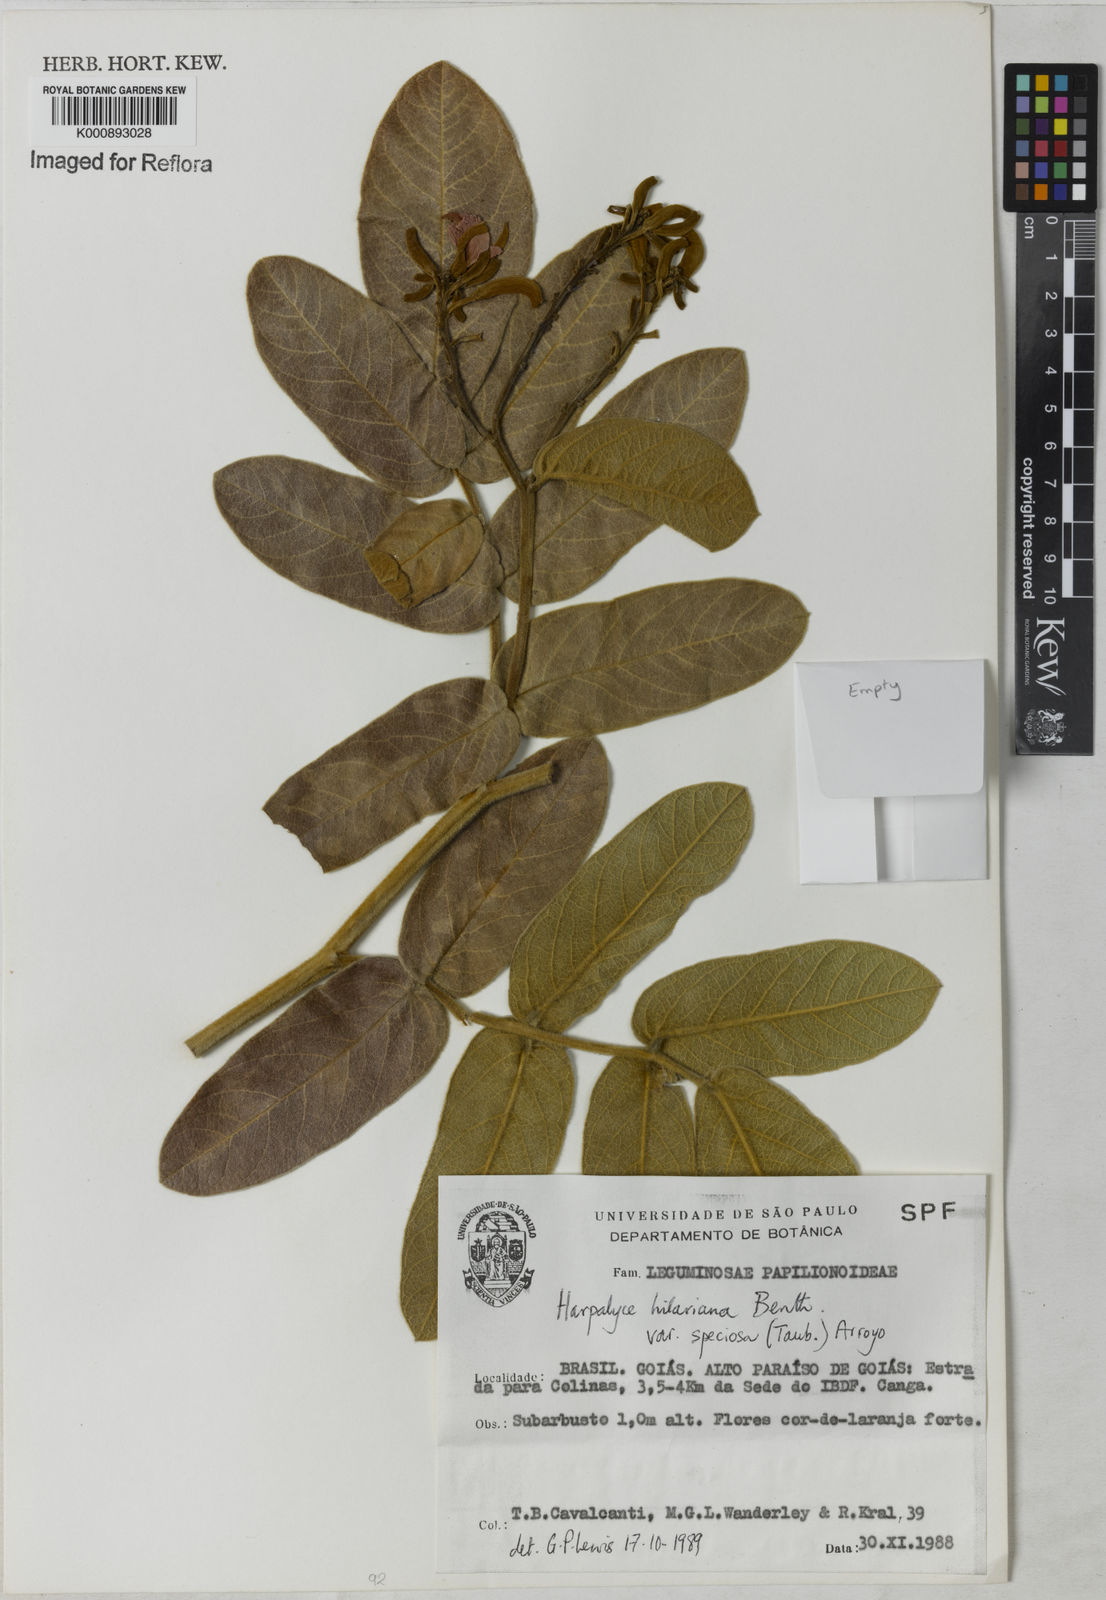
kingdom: Plantae
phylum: Tracheophyta
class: Magnoliopsida
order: Fabales
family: Fabaceae
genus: Harpalyce
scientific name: Harpalyce speciosa
